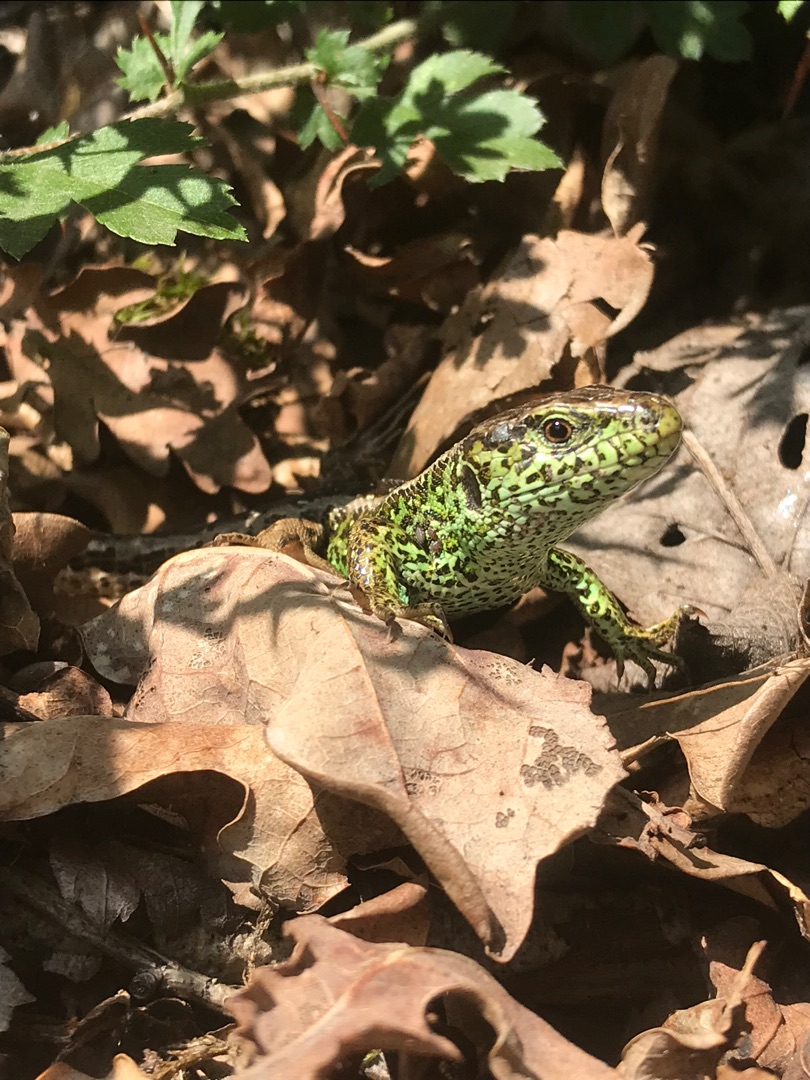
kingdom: Animalia
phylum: Chordata
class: Squamata
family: Lacertidae
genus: Lacerta
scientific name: Lacerta agilis
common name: Markfirben
